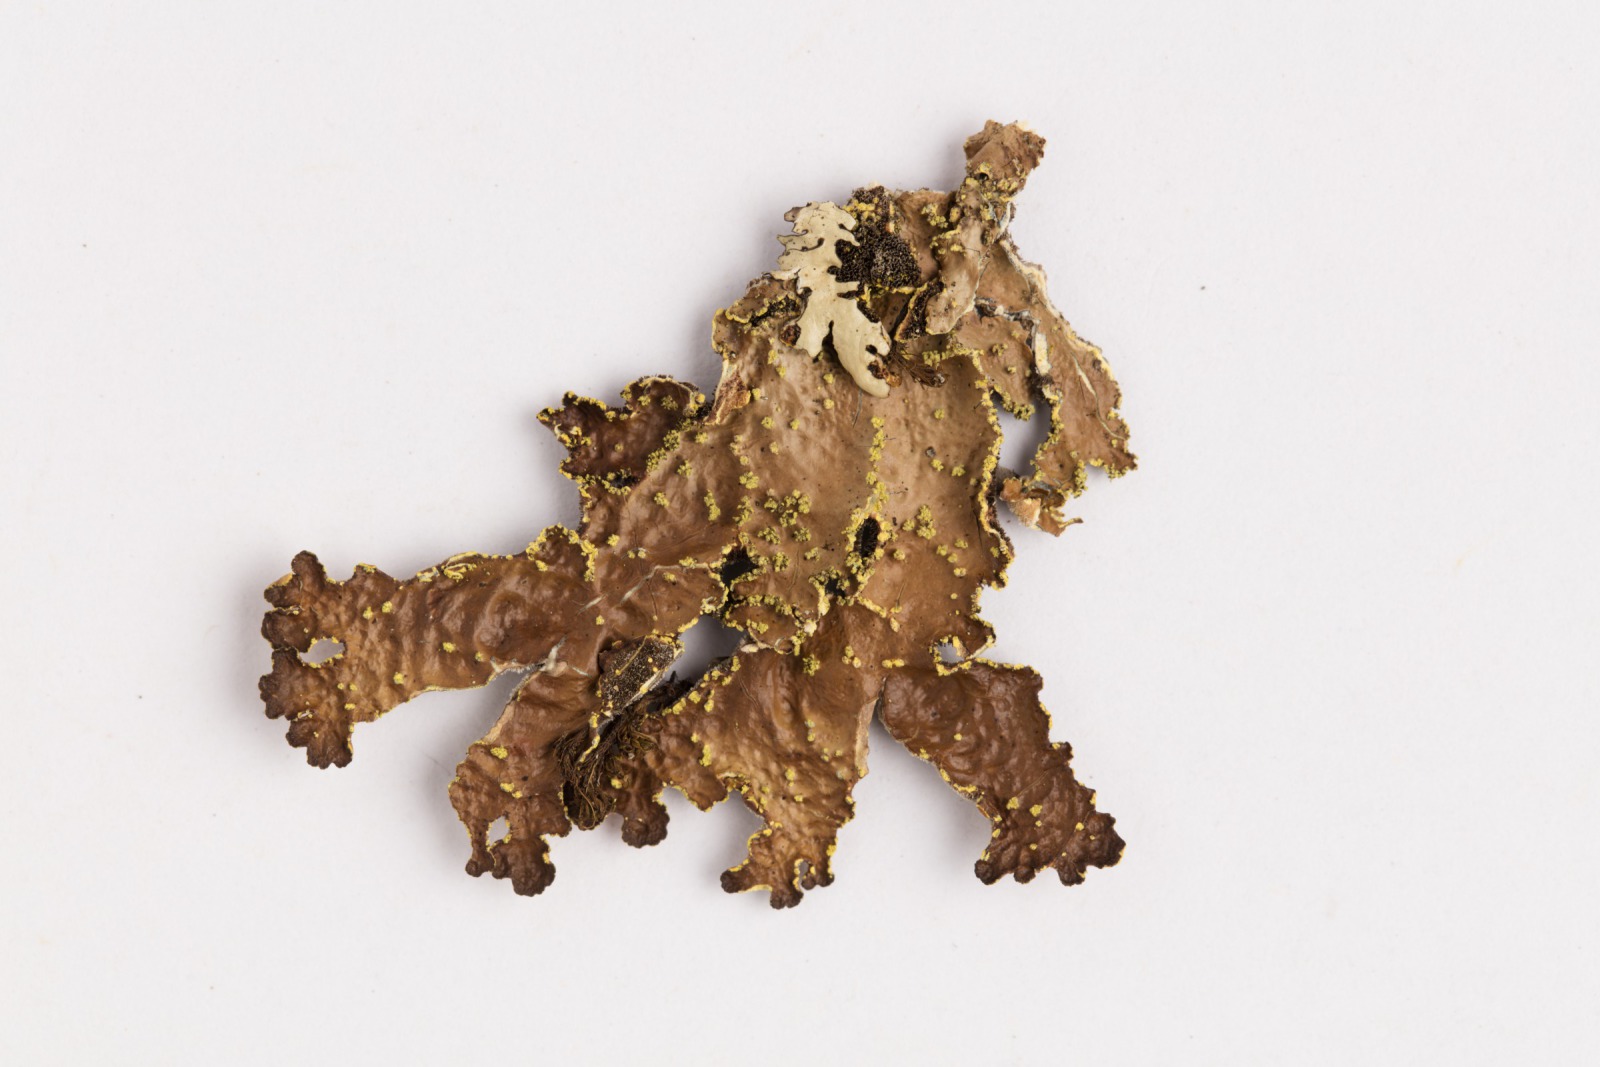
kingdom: Fungi
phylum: Ascomycota
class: Lecanoromycetes
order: Peltigerales
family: Lobariaceae
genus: Pseudocyphellaria
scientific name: Pseudocyphellaria crocata
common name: Golden specklebelly
